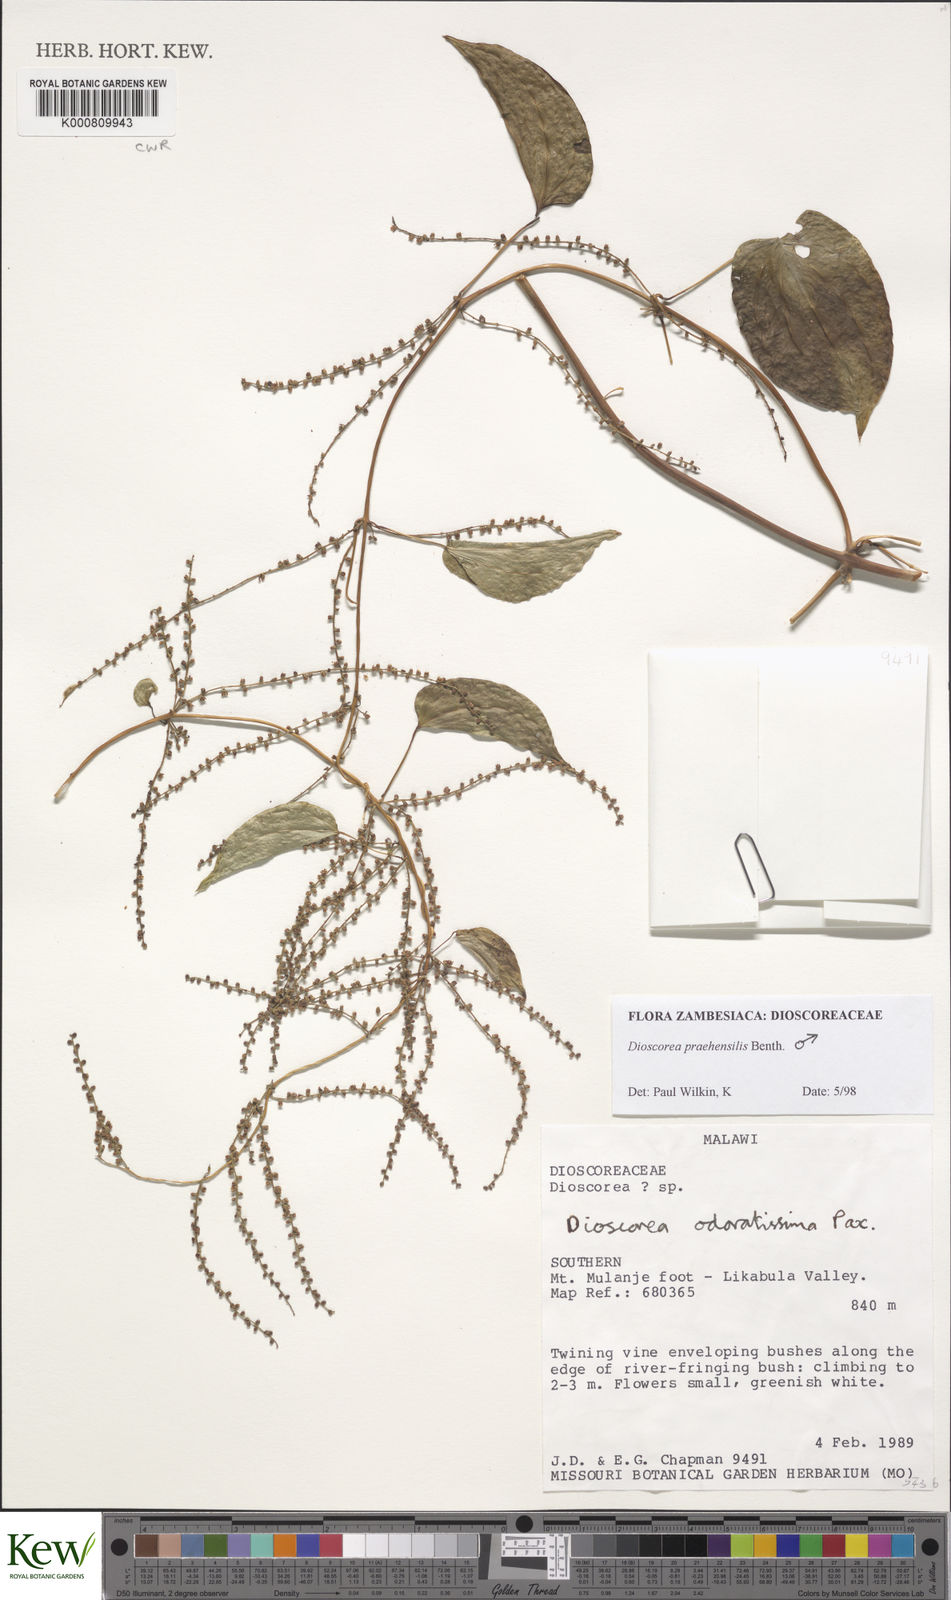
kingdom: Plantae
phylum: Tracheophyta
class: Liliopsida
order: Dioscoreales
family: Dioscoreaceae
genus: Dioscorea
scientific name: Dioscorea praehensilis
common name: Bush yam
